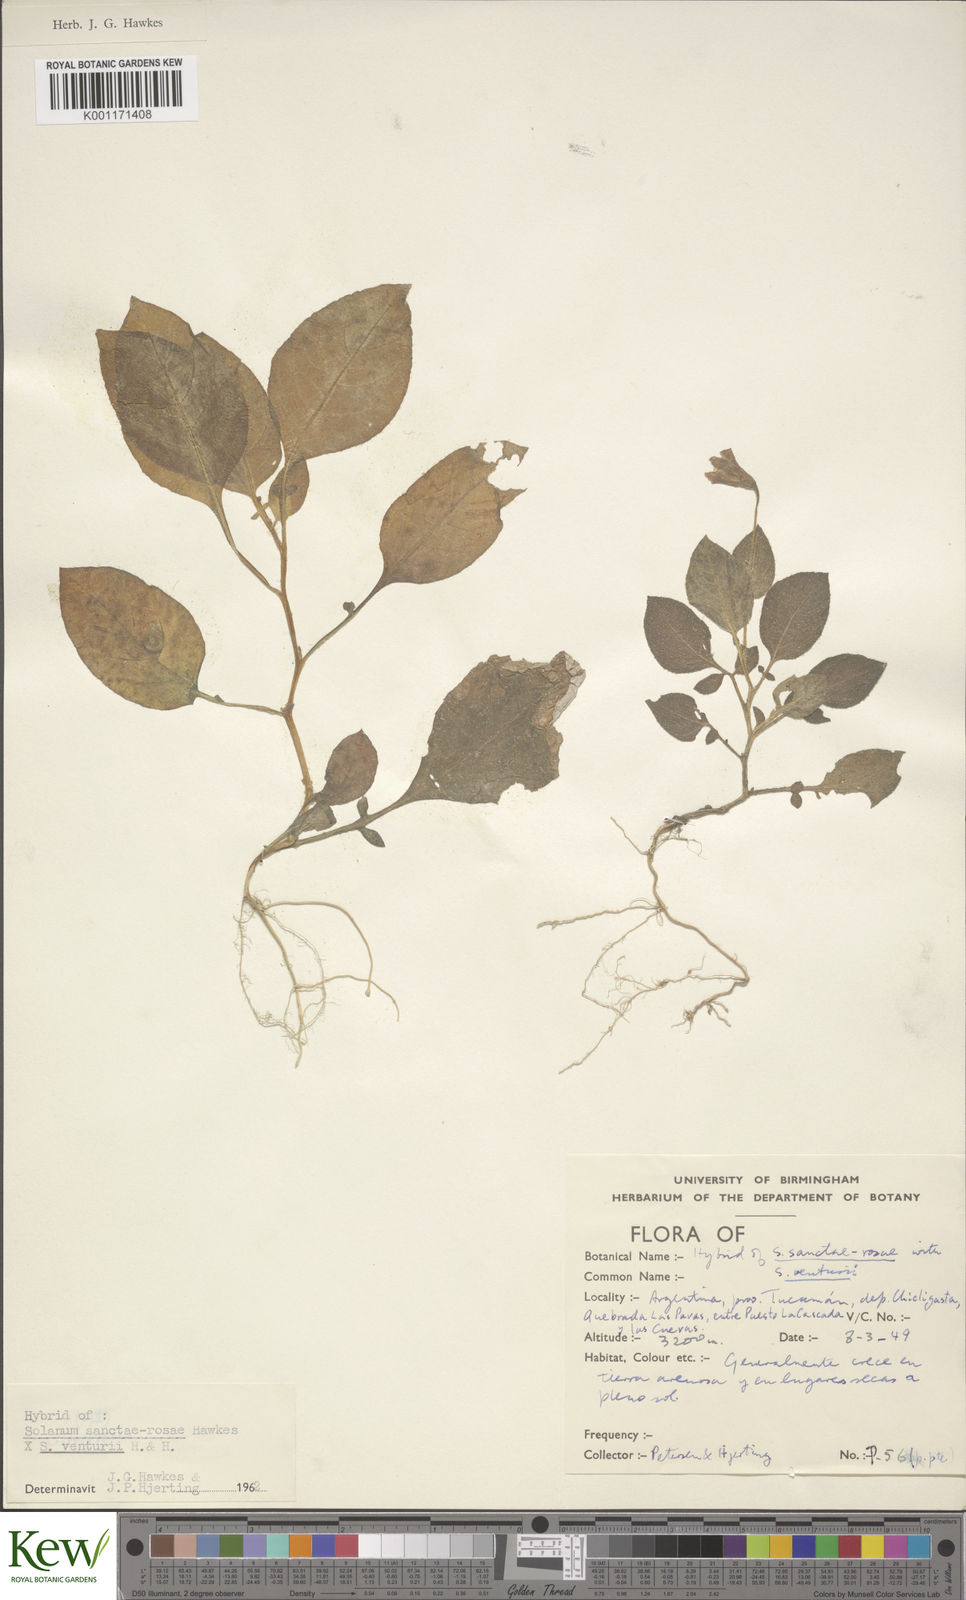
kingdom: Plantae
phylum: Tracheophyta
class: Magnoliopsida
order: Solanales
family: Solanaceae
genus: Solanum
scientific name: Solanum boliviense
